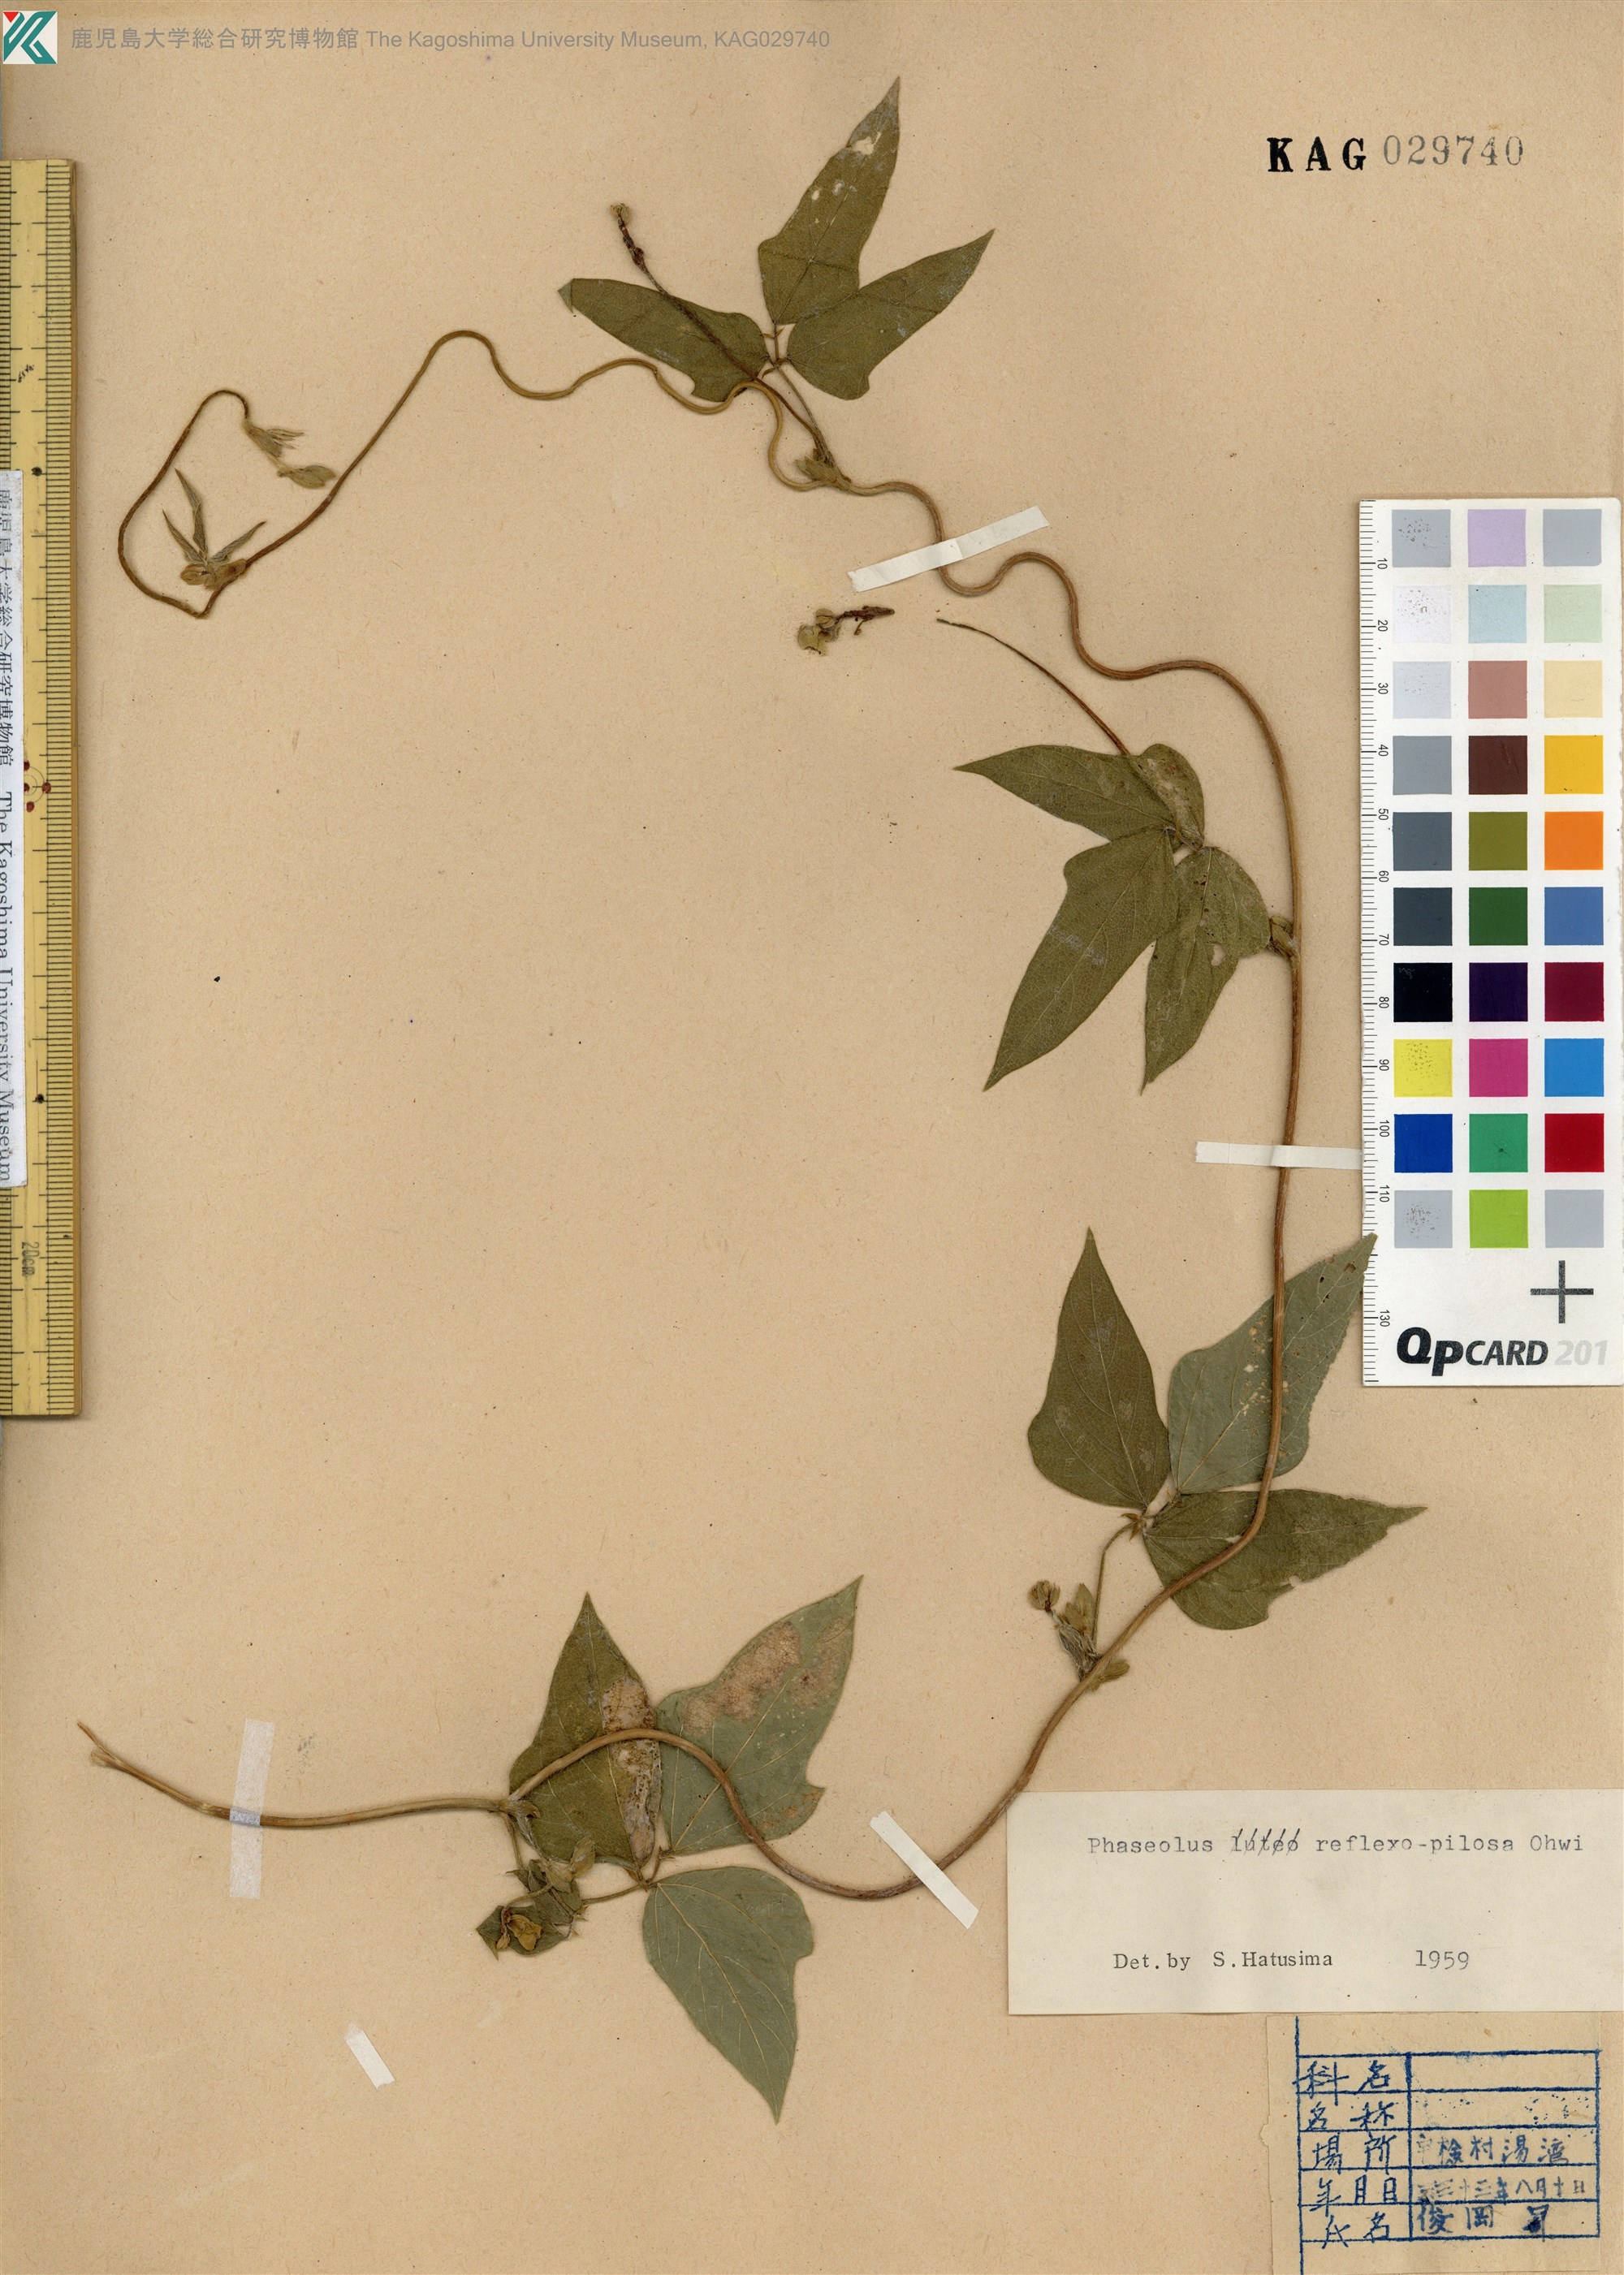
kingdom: Plantae
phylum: Tracheophyta
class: Magnoliopsida
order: Fabales
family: Fabaceae
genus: Vigna
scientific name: Vigna reflexopilosa
